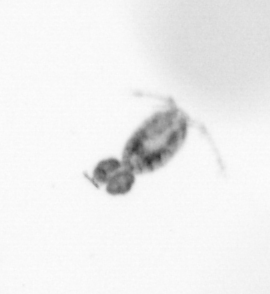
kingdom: Animalia
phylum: Arthropoda
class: Copepoda
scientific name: Copepoda
